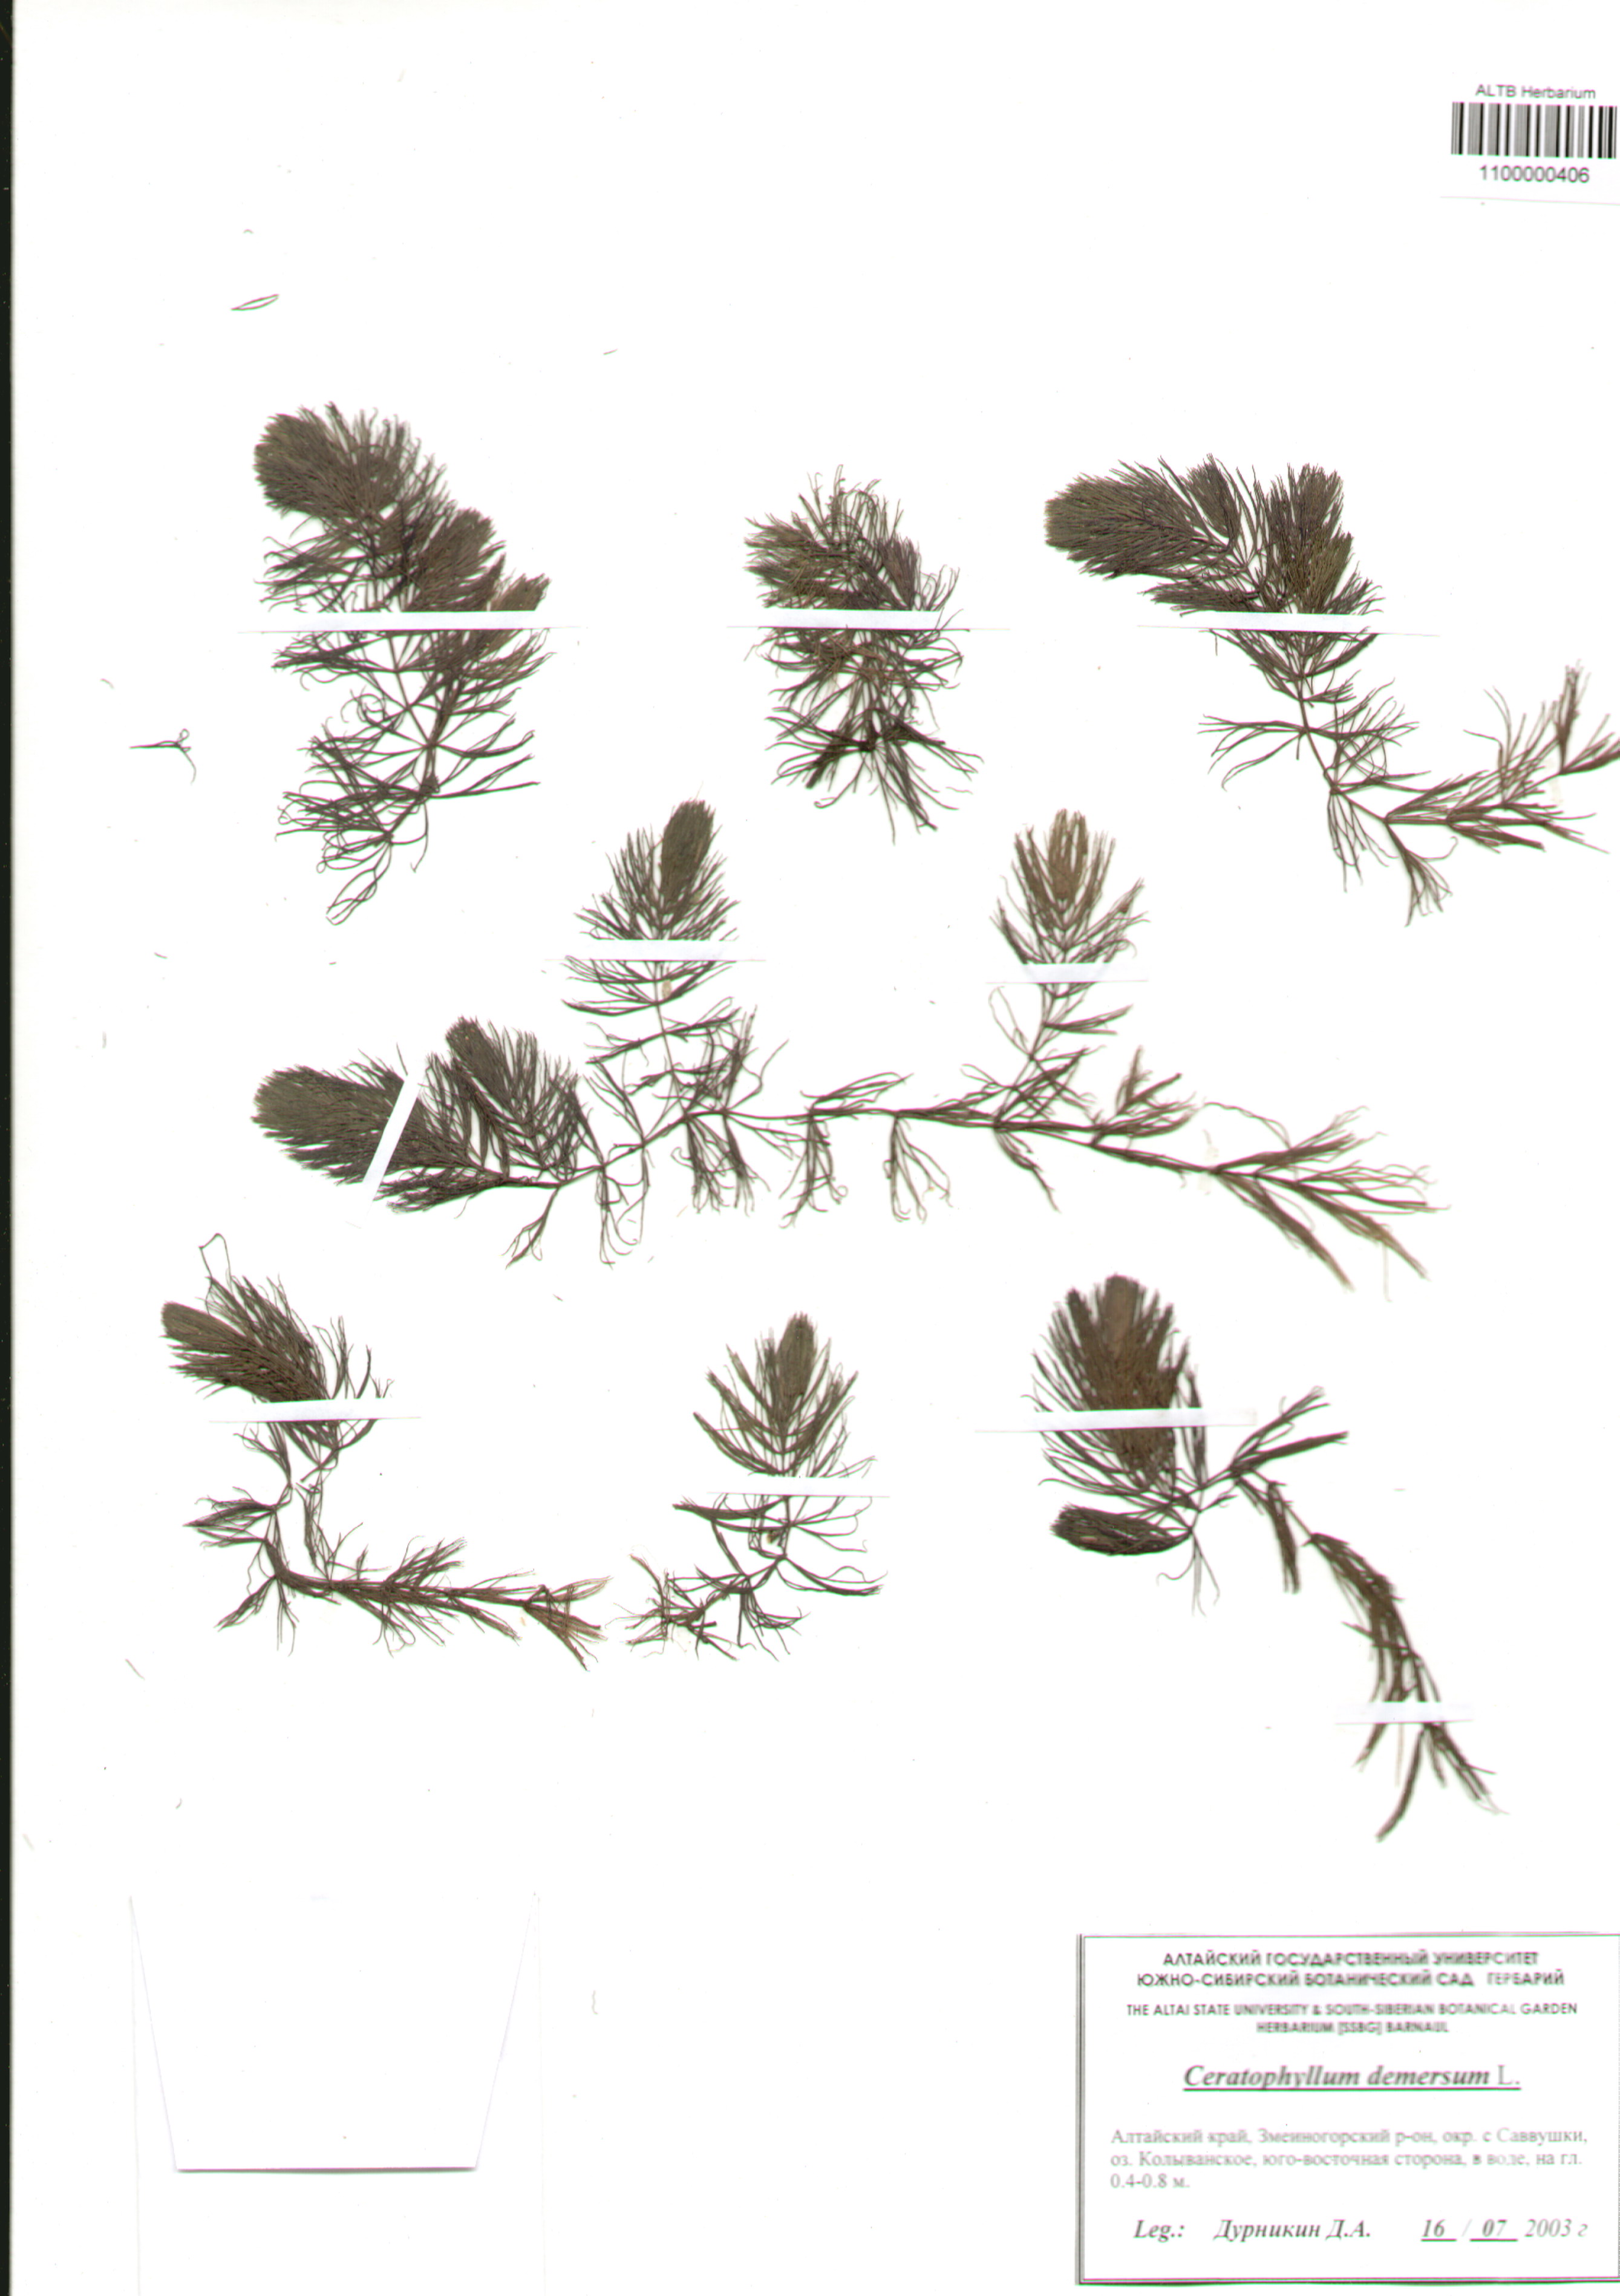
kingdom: Plantae
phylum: Tracheophyta
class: Magnoliopsida
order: Ceratophyllales
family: Ceratophyllaceae
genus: Ceratophyllum
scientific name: Ceratophyllum demersum
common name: Rigid hornwort
